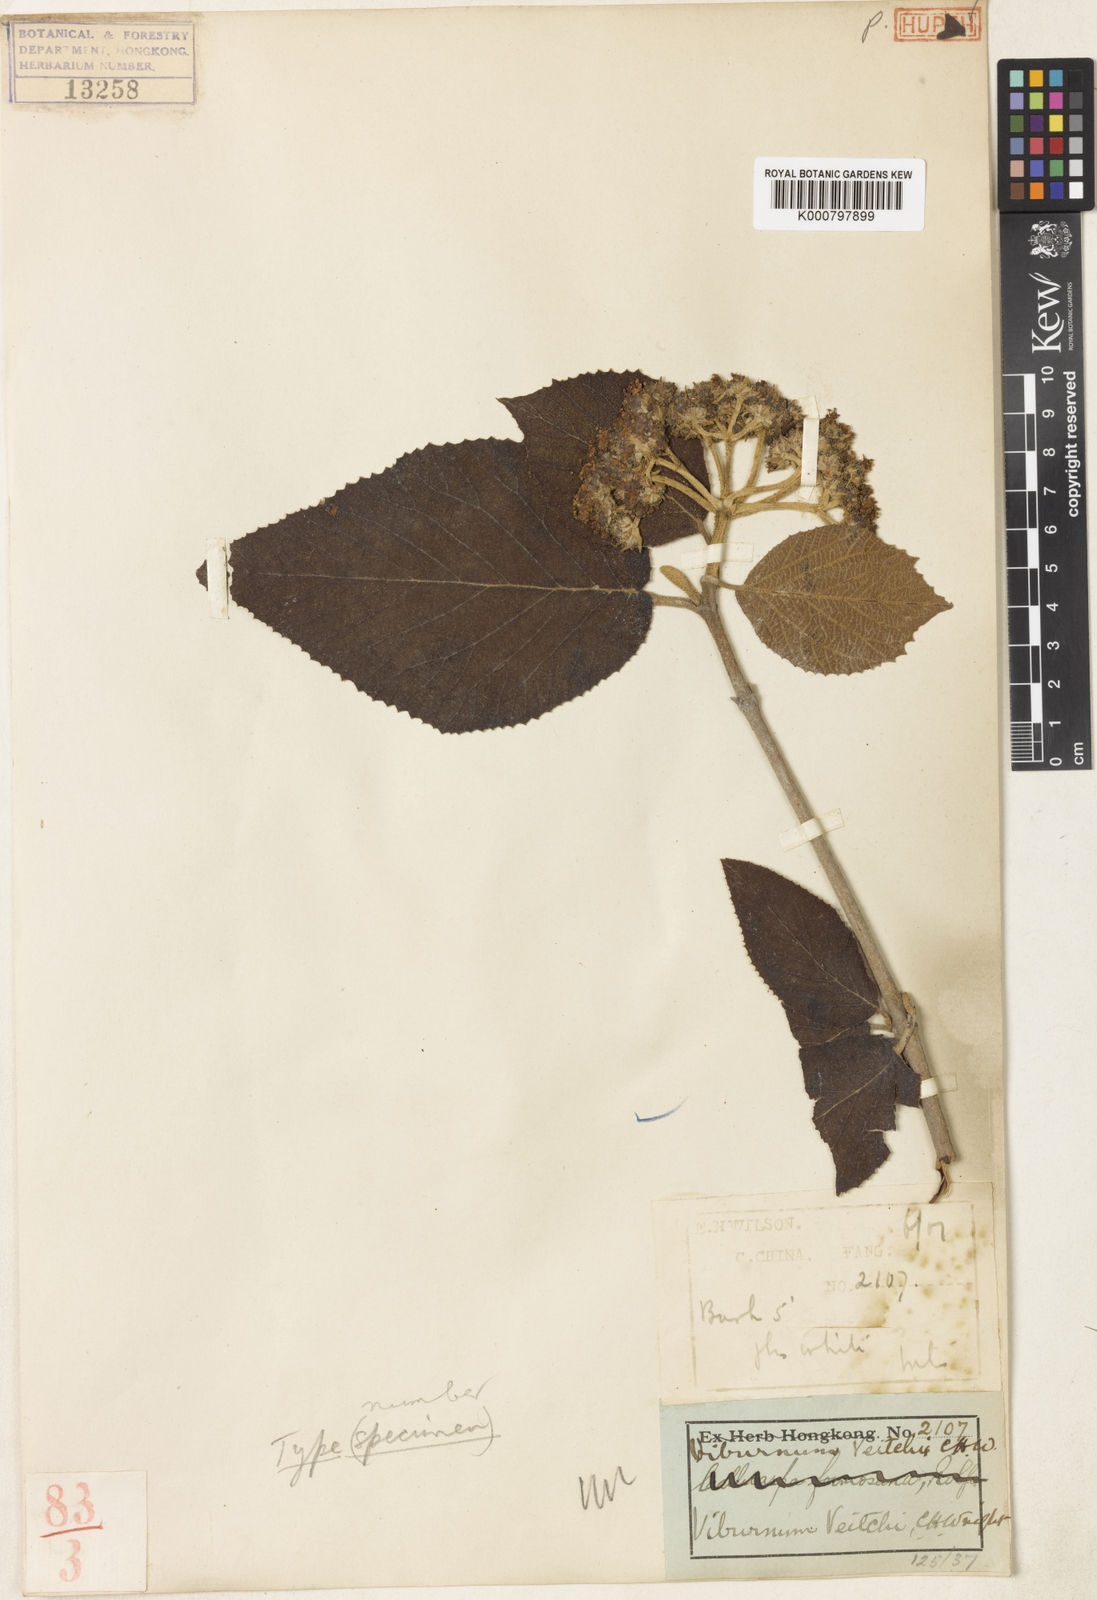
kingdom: Plantae
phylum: Tracheophyta
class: Magnoliopsida
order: Dipsacales
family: Viburnaceae
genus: Viburnum
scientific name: Viburnum glomeratum
